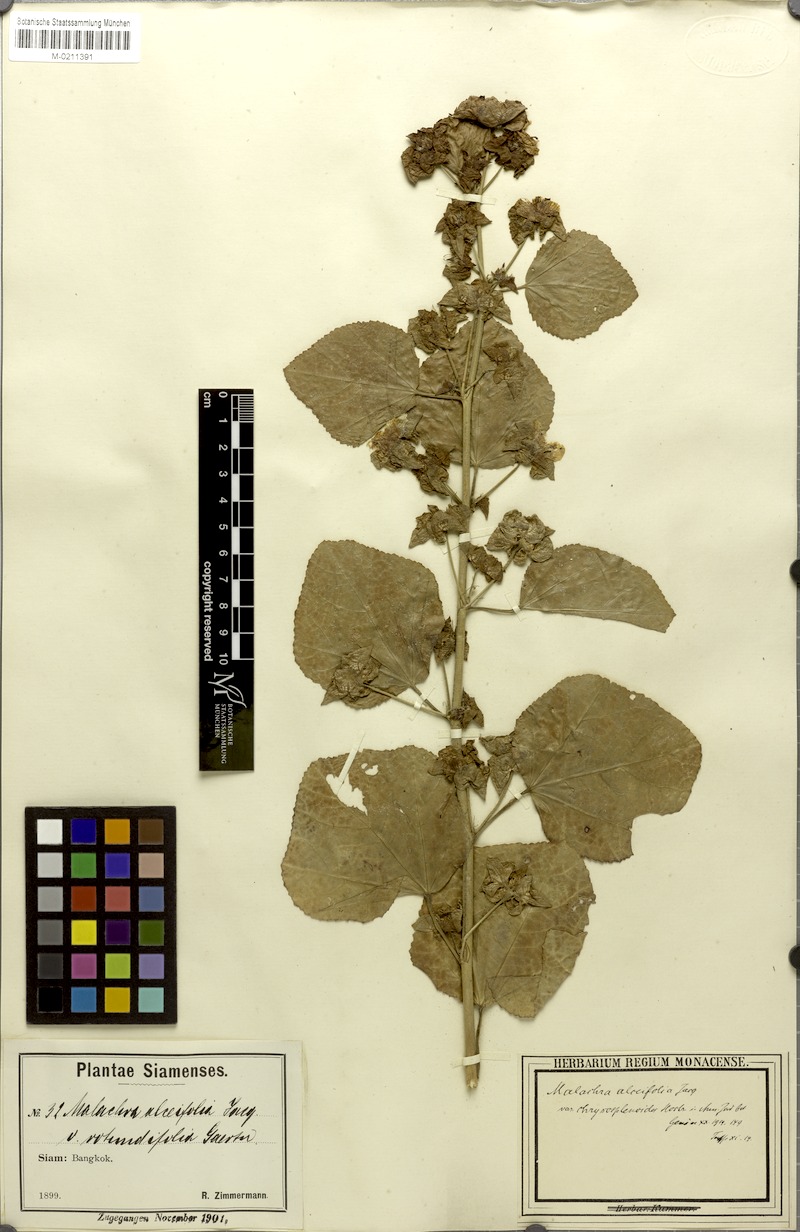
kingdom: Plantae
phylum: Tracheophyta
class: Magnoliopsida
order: Malvales
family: Malvaceae
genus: Malachra
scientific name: Malachra alceifolia
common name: Yellow leafbract
